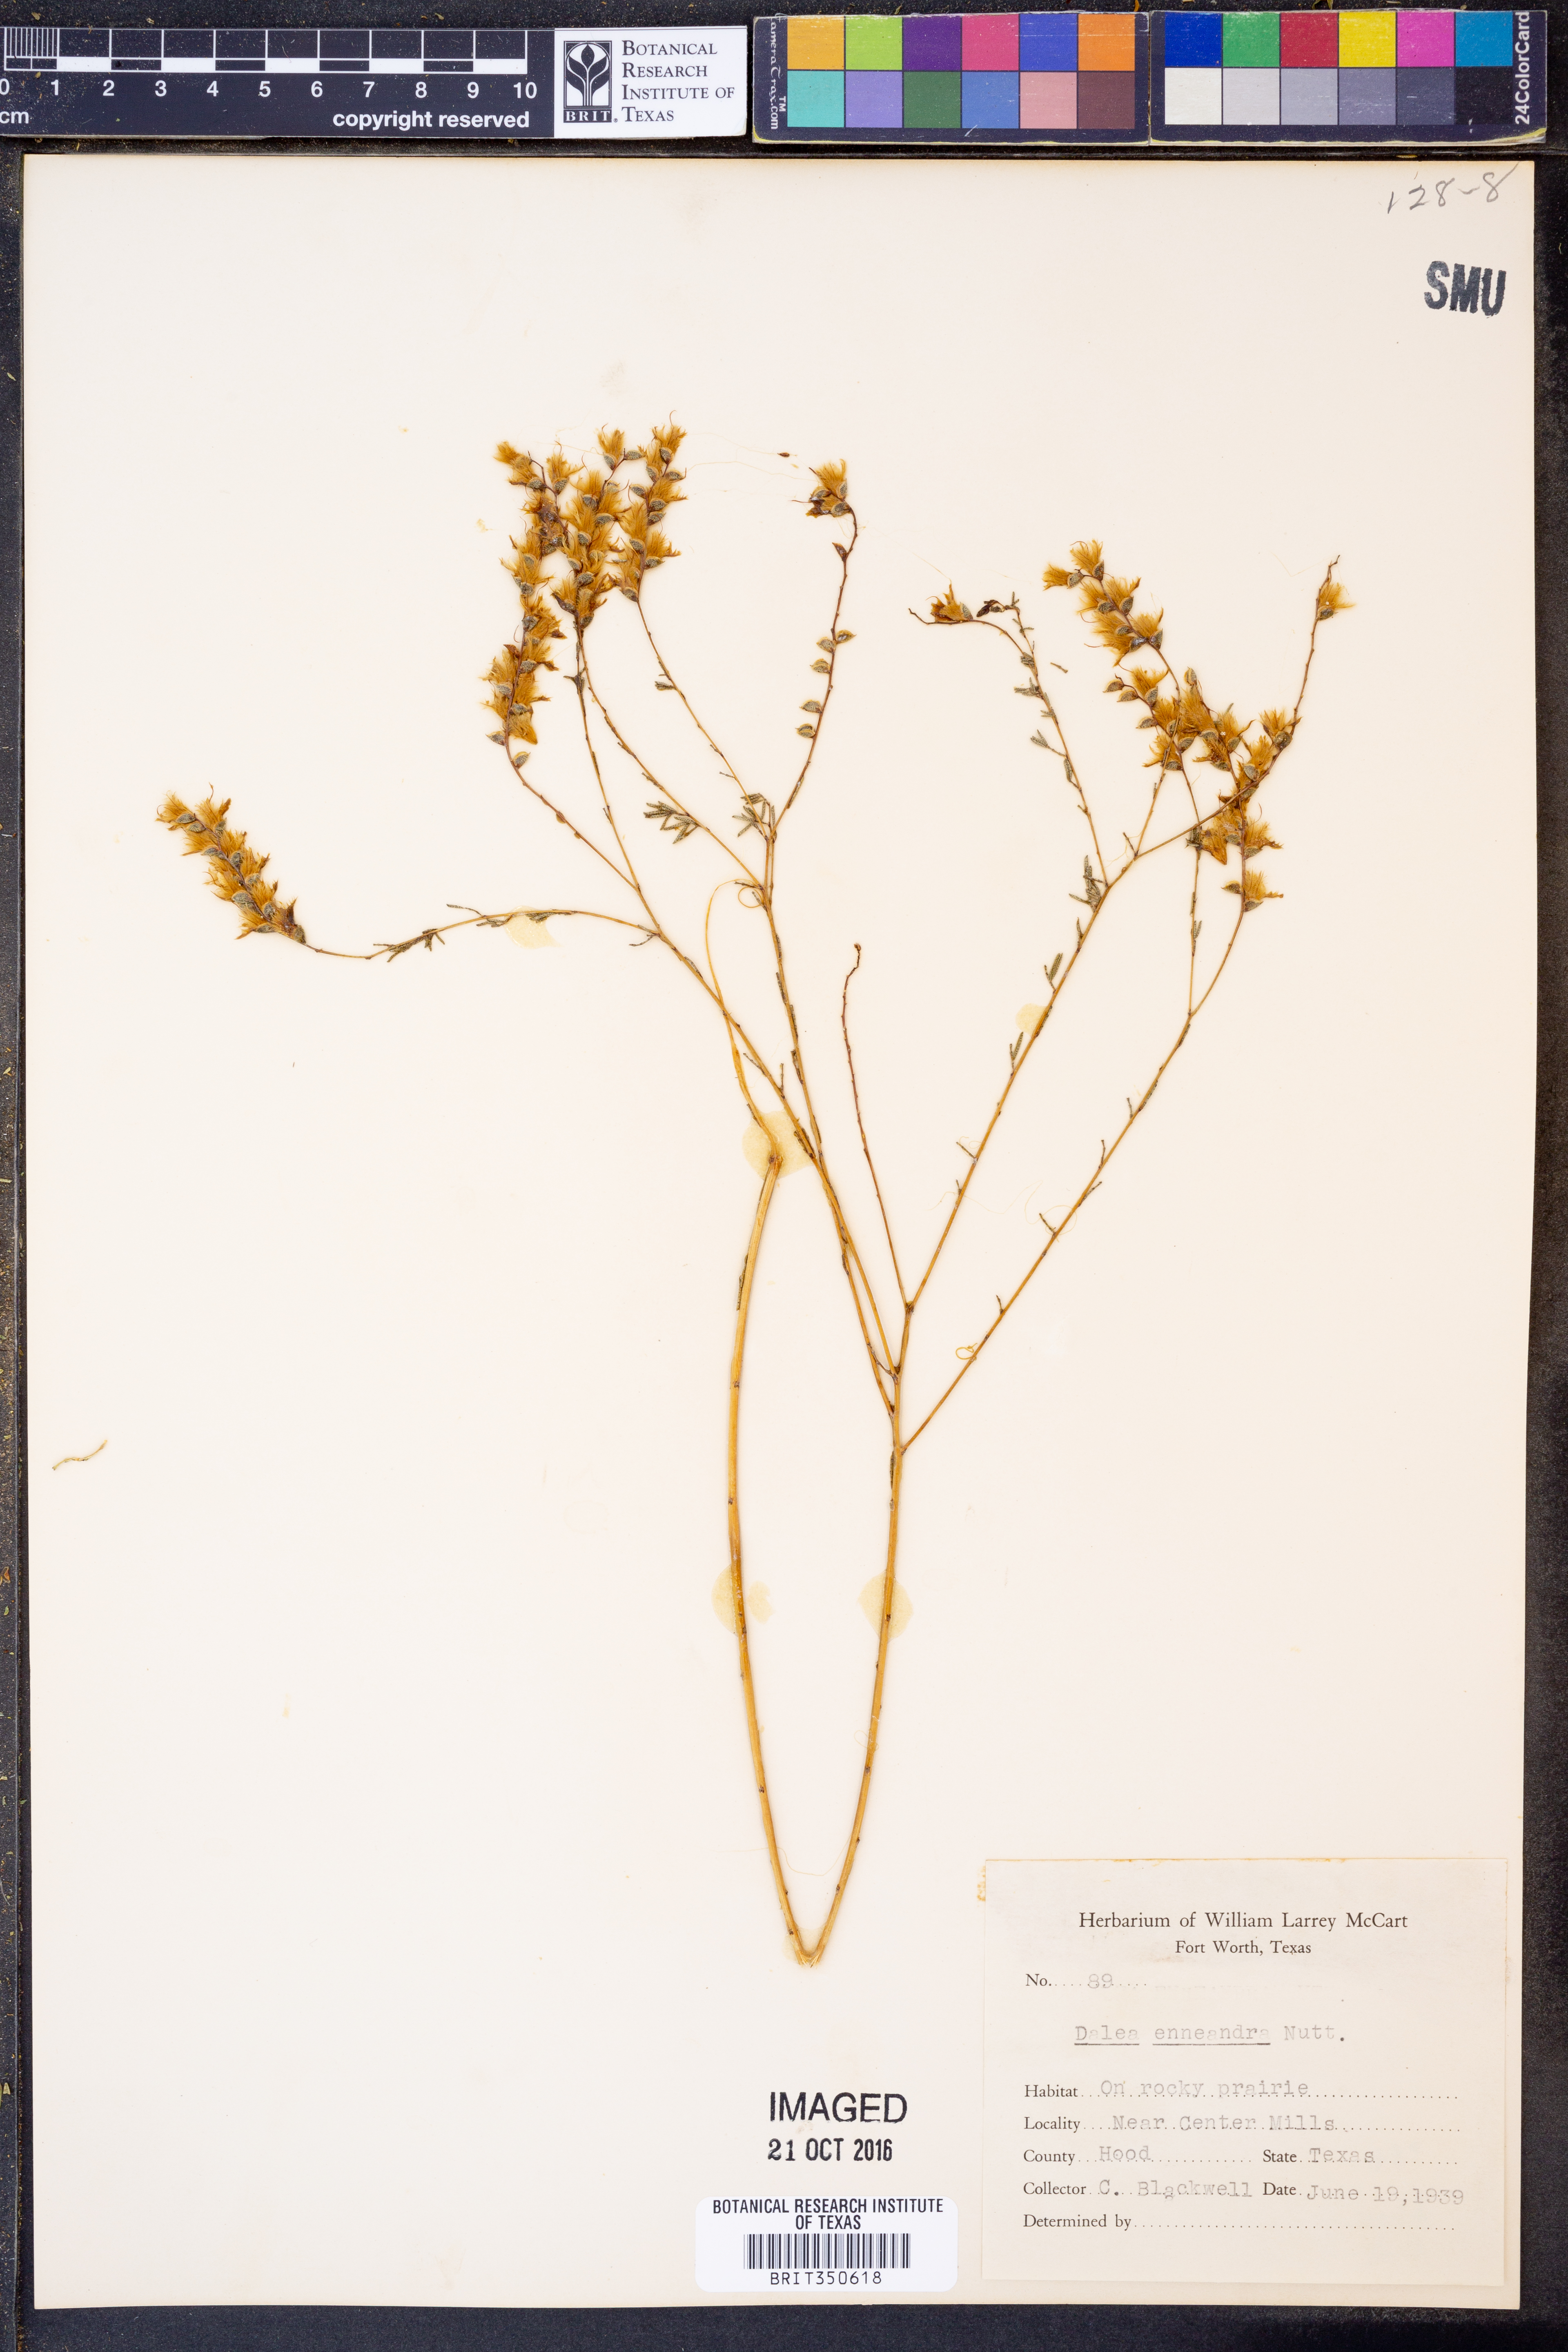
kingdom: Plantae
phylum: Tracheophyta
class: Magnoliopsida
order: Fabales
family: Fabaceae
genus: Dalea
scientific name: Dalea enneandra
